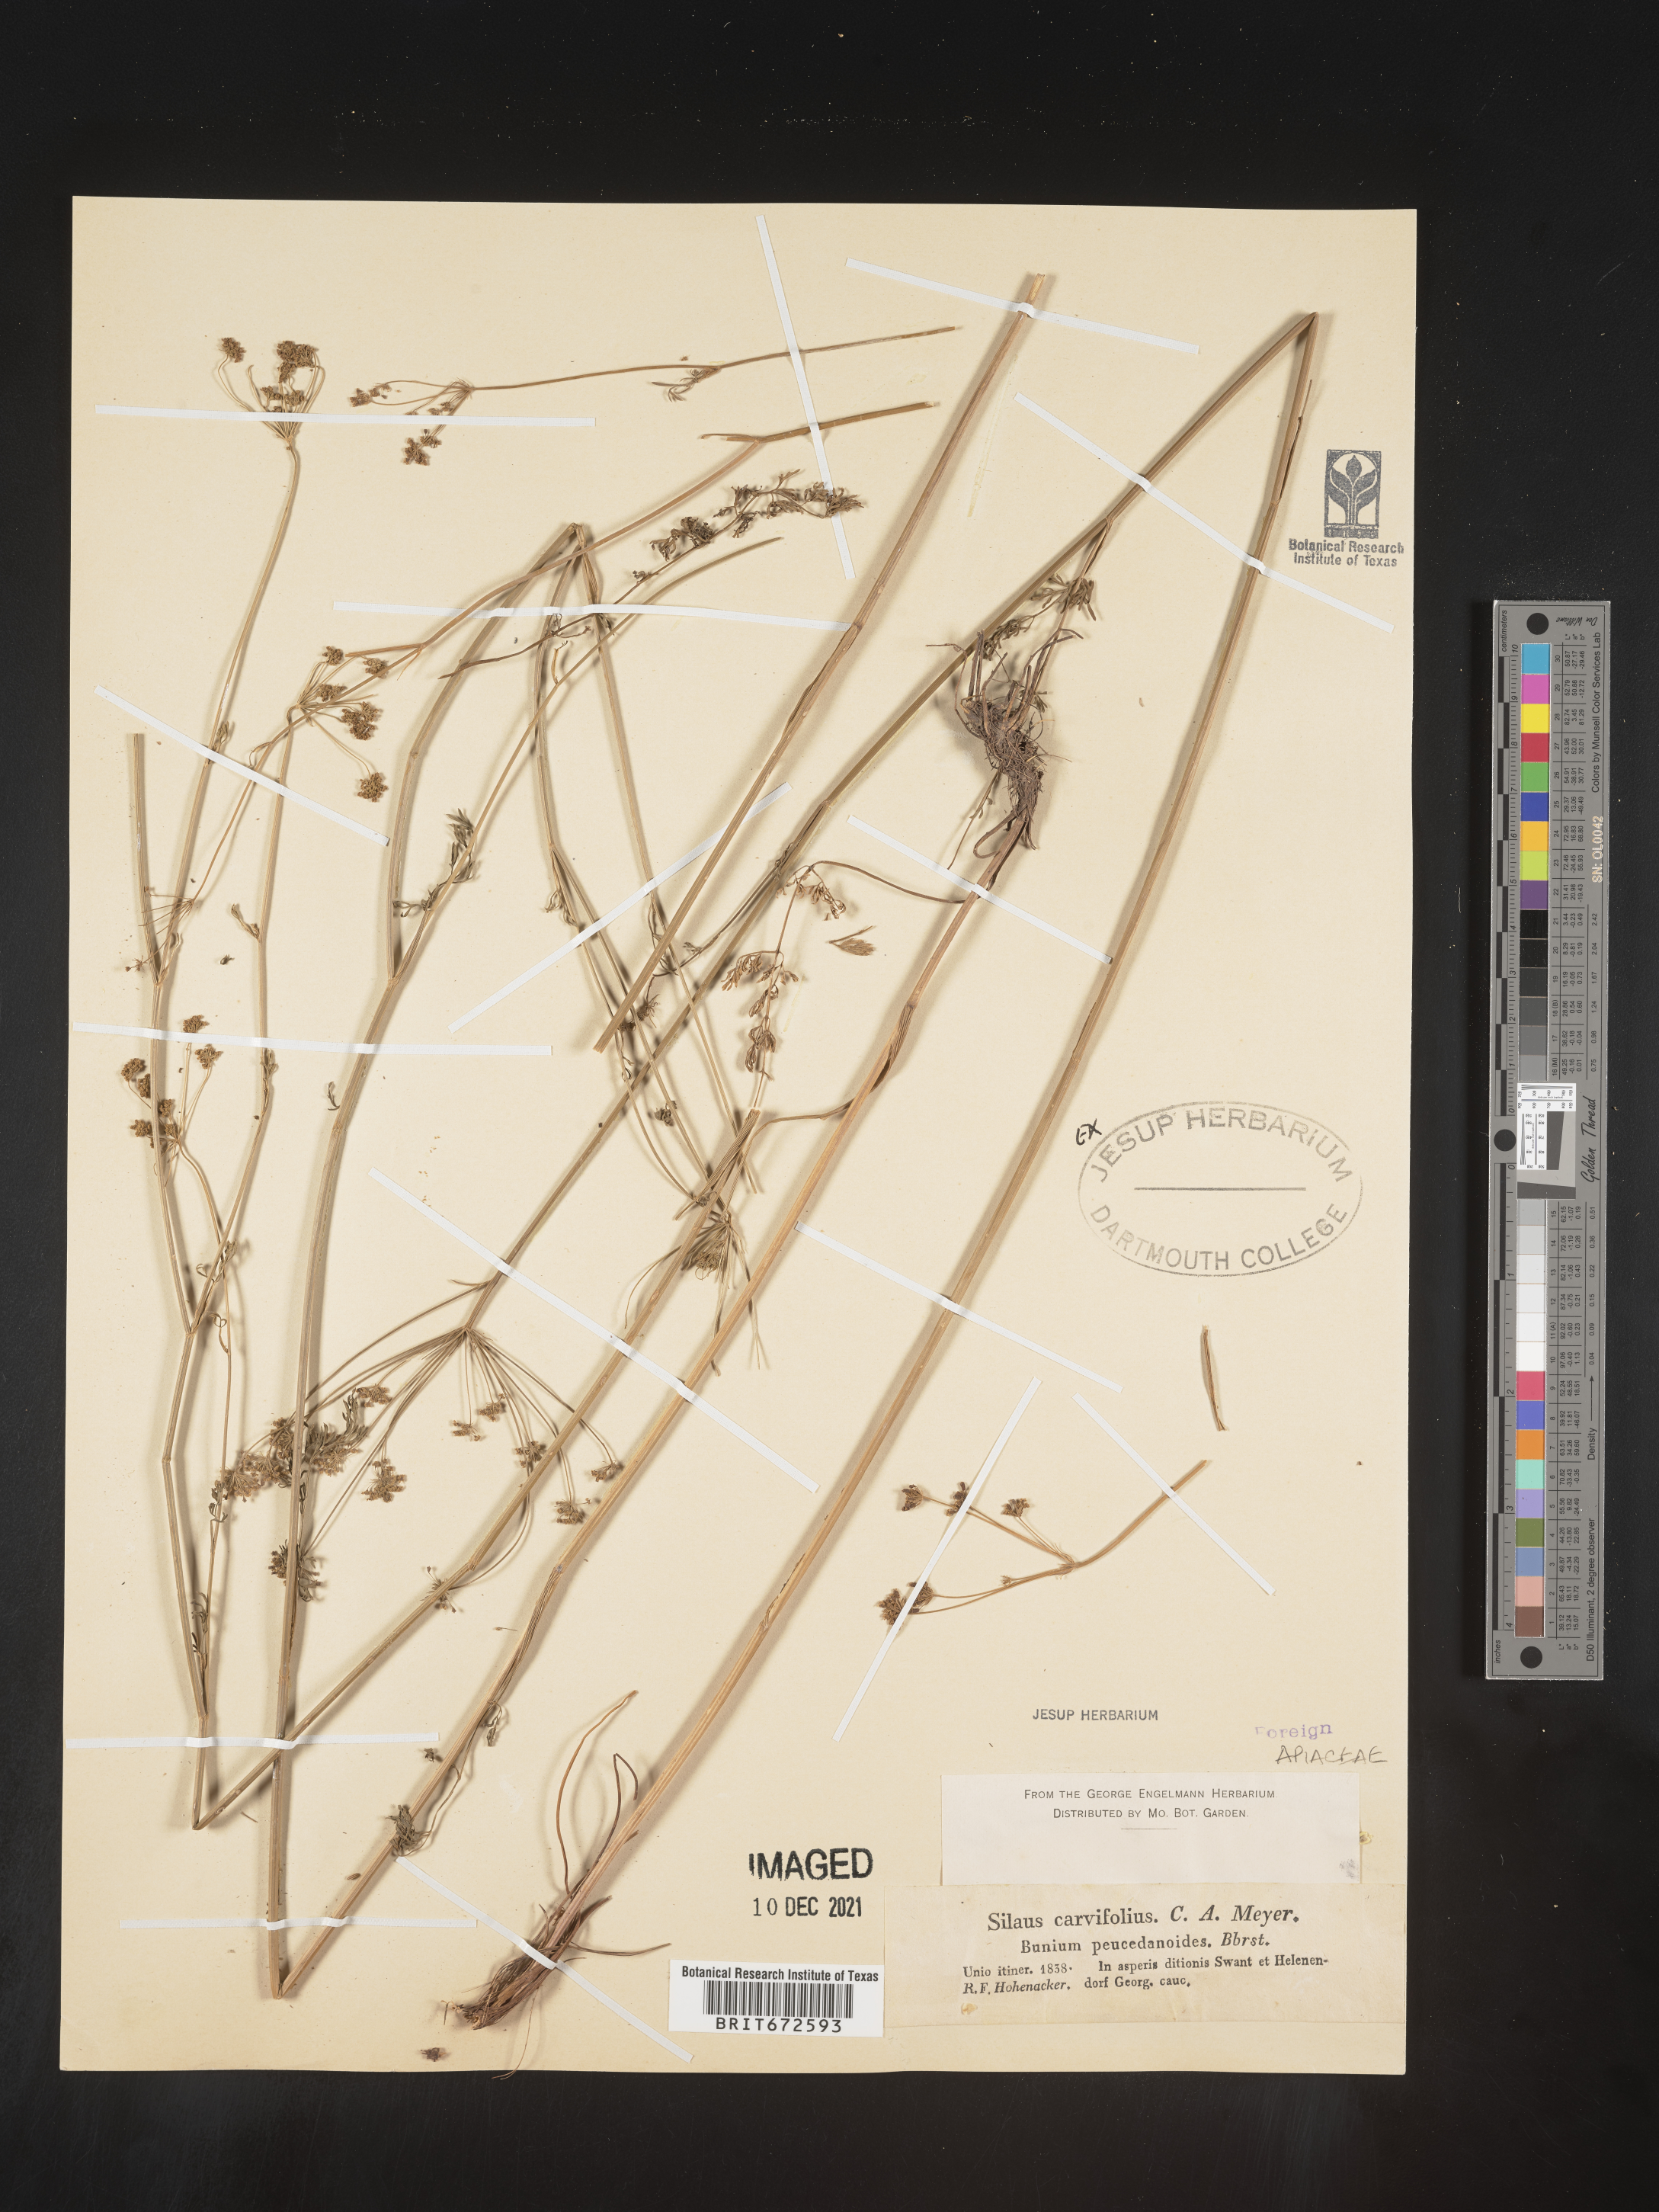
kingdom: Plantae
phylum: Tracheophyta
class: Magnoliopsida
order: Apiales
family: Apiaceae
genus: Silaum
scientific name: Silaum
